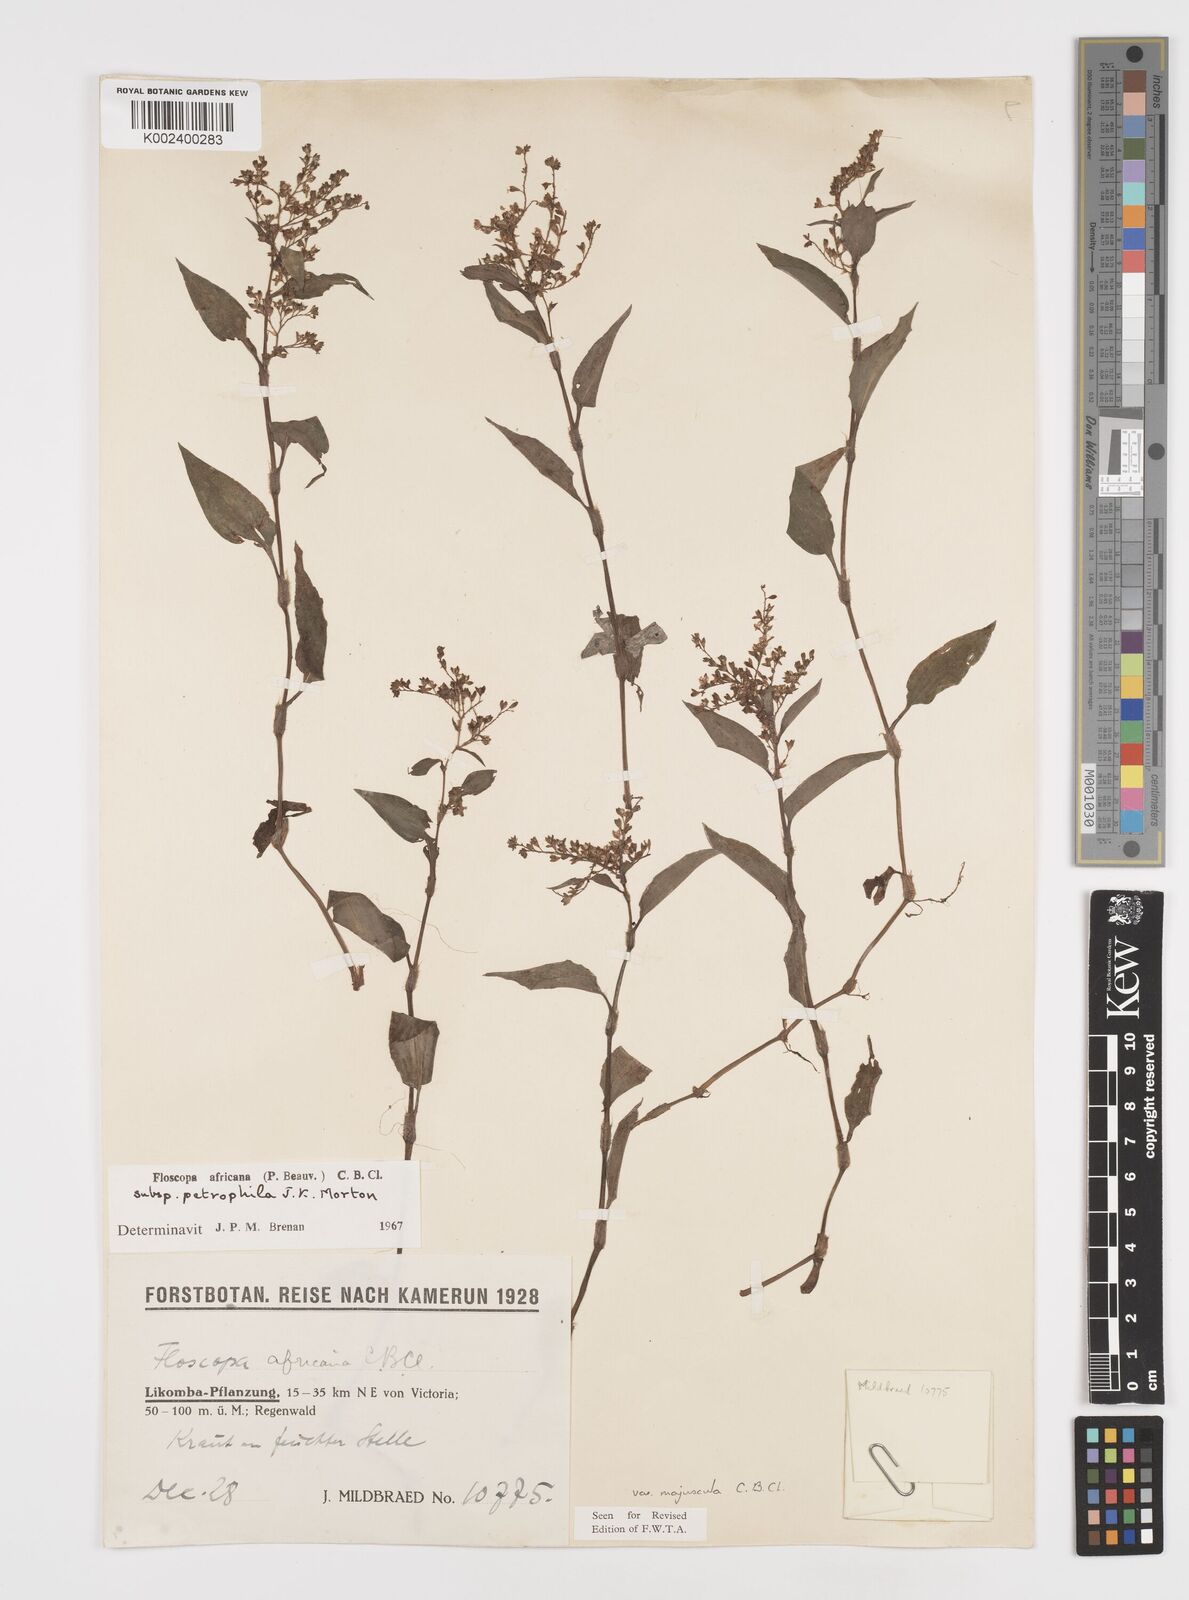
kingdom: Plantae
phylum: Tracheophyta
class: Liliopsida
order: Commelinales
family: Commelinaceae
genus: Floscopa
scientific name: Floscopa africana
